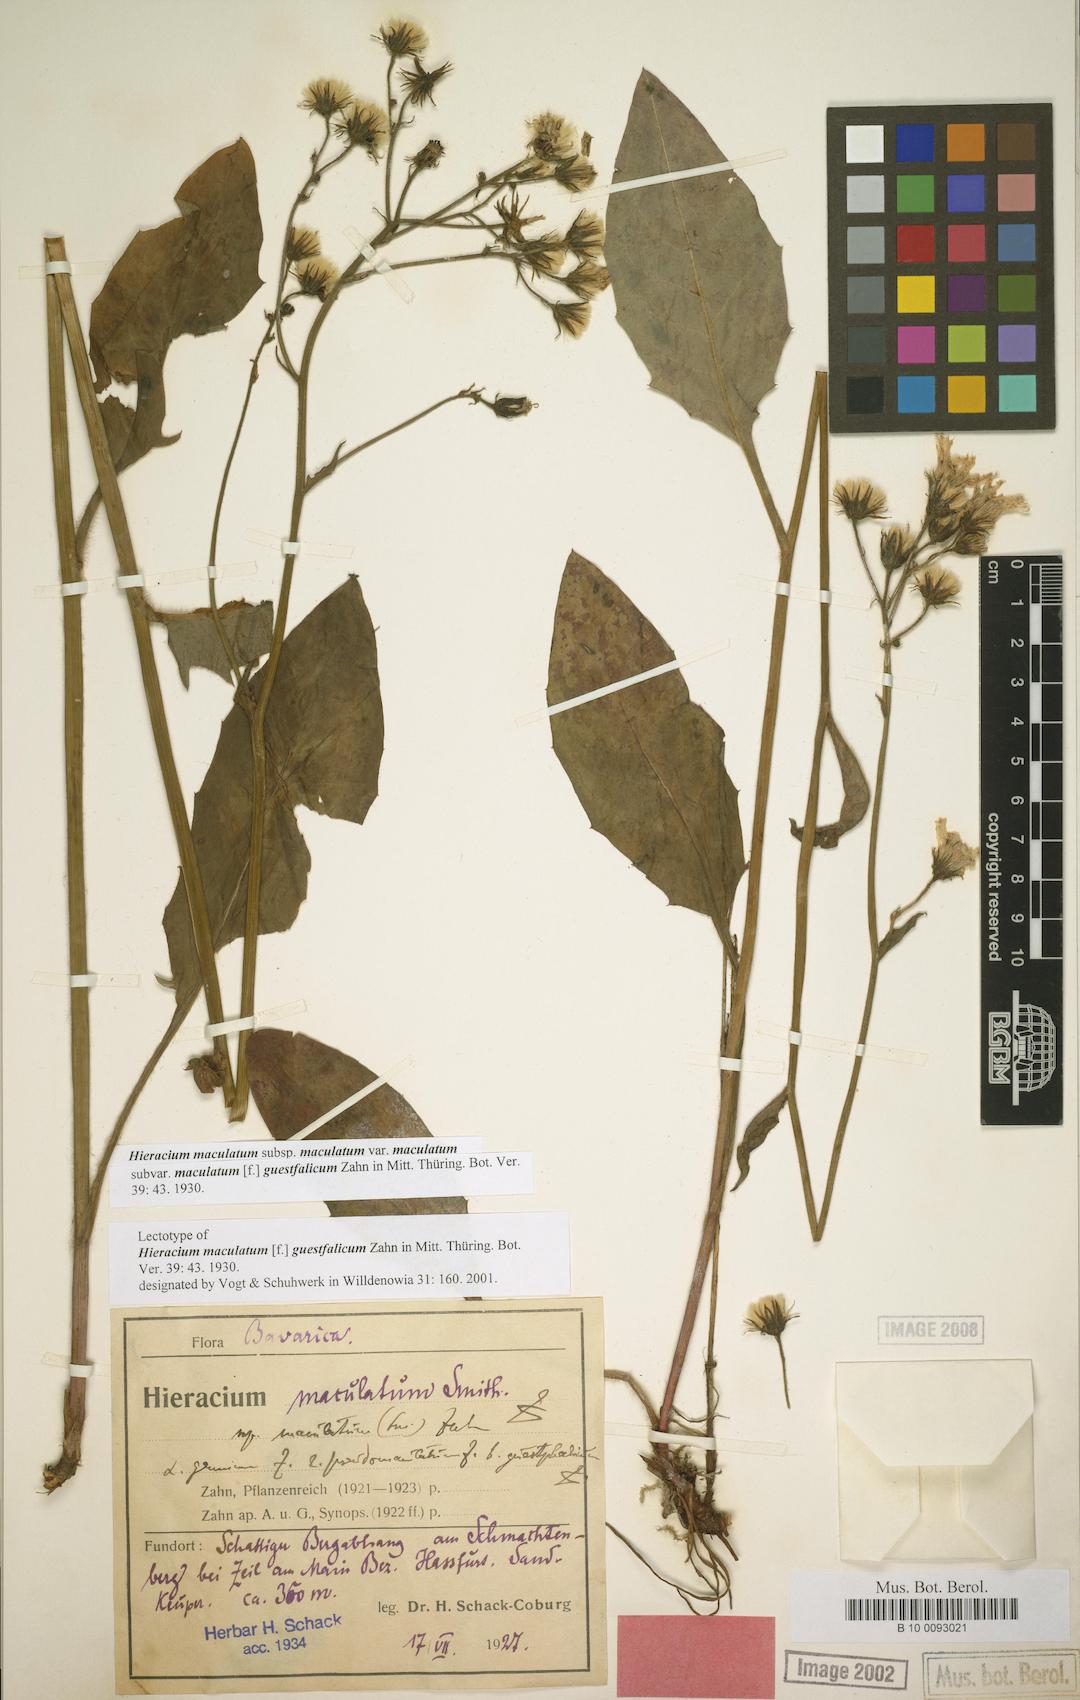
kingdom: Plantae
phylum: Tracheophyta
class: Magnoliopsida
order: Asterales
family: Asteraceae
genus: Hieracium
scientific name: Hieracium maculatum
